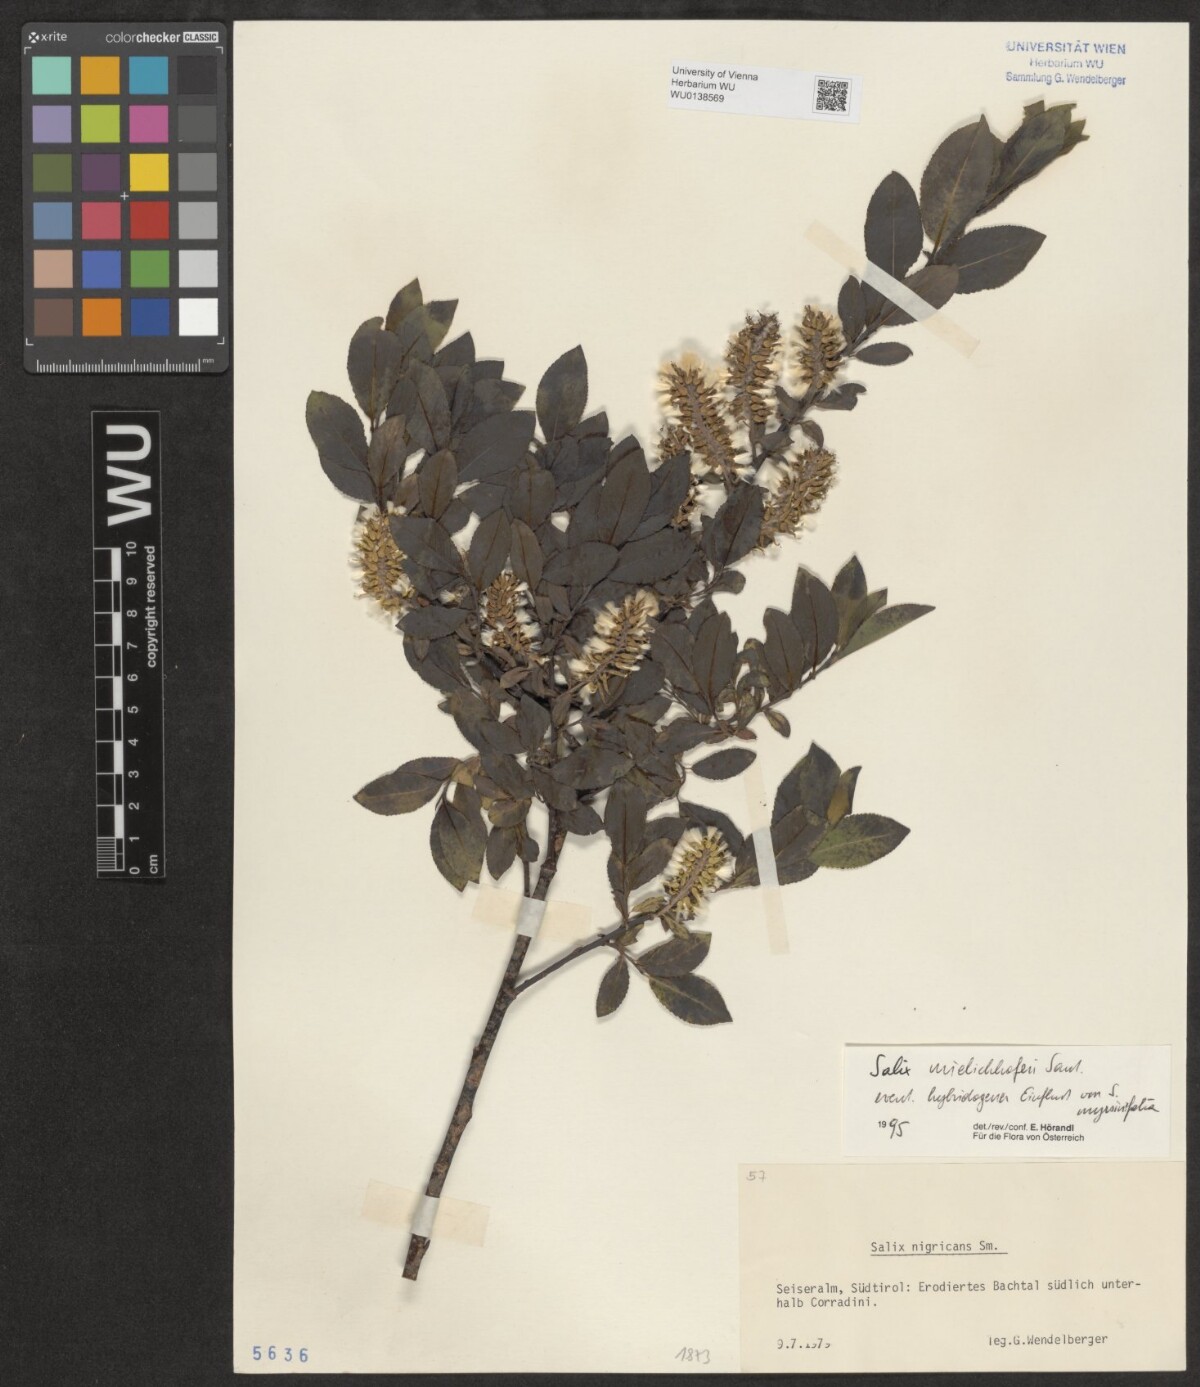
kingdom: Plantae
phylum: Tracheophyta
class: Magnoliopsida
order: Malpighiales
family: Salicaceae
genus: Salix
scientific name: Salix mielichhoferi
